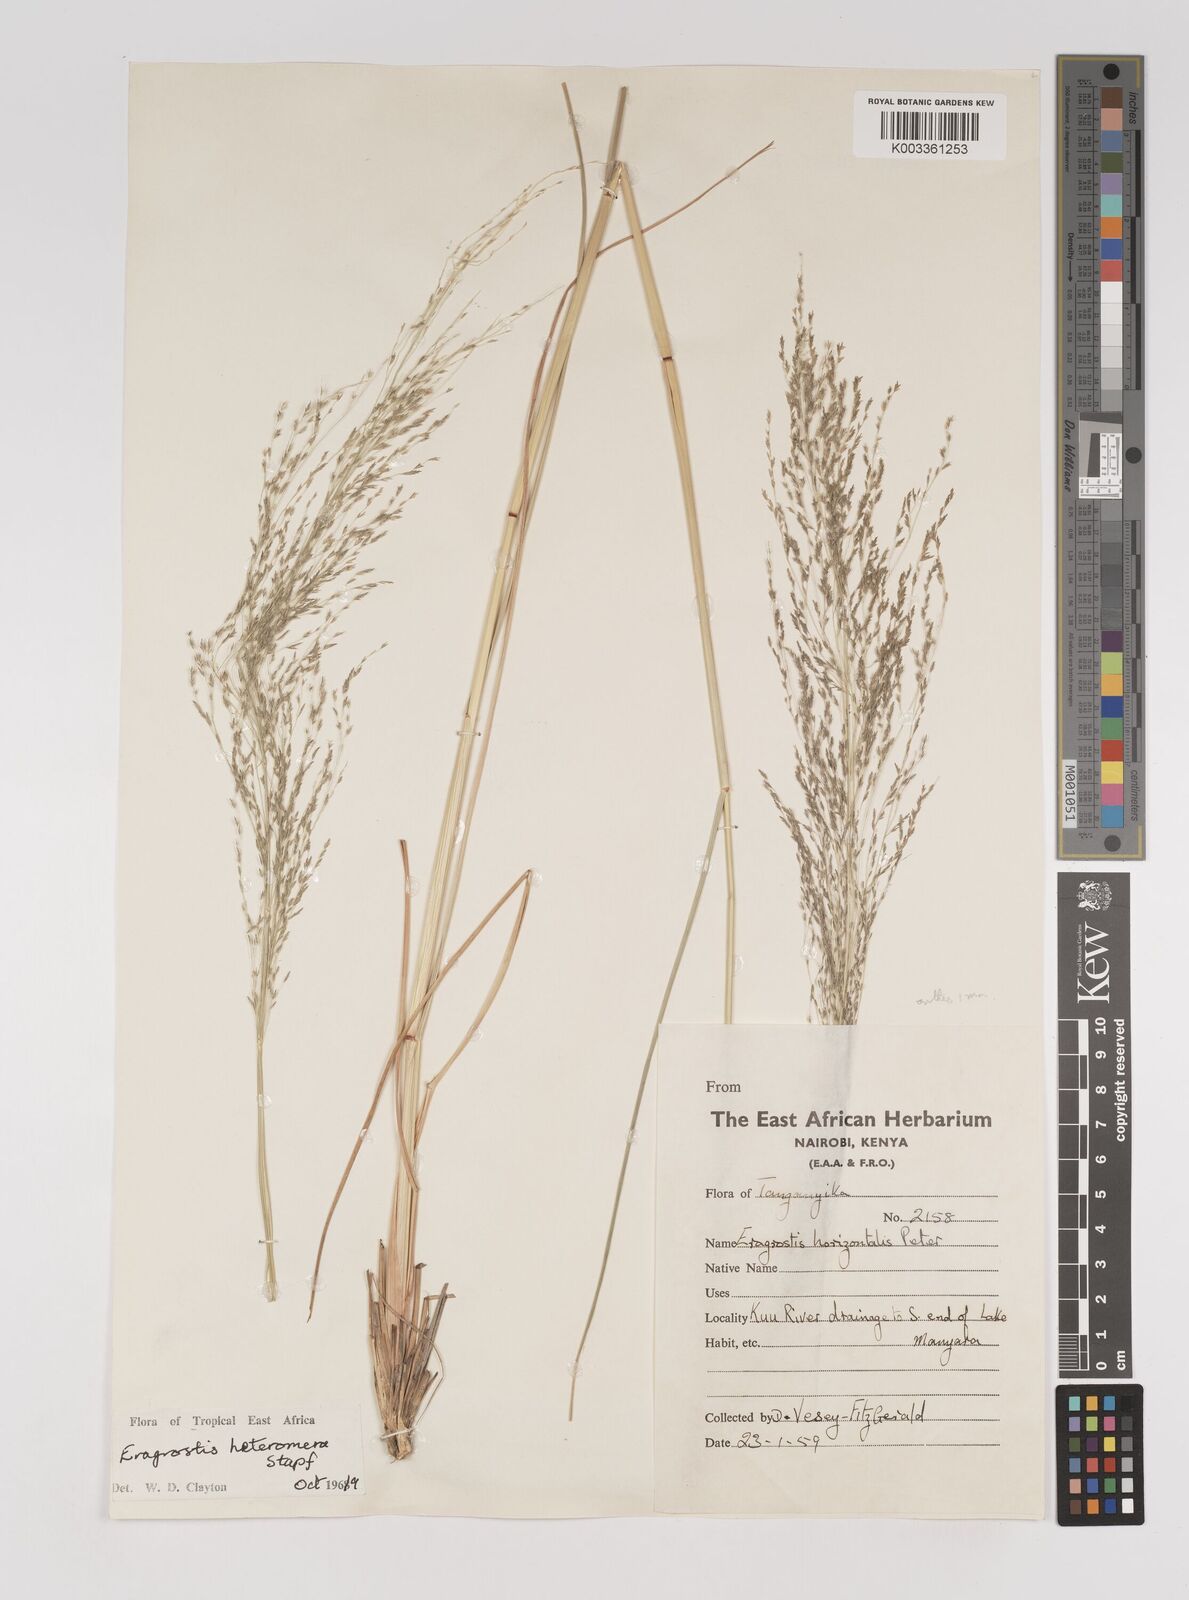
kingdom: Plantae
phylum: Tracheophyta
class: Liliopsida
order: Poales
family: Poaceae
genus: Eragrostis
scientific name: Eragrostis heteromera
